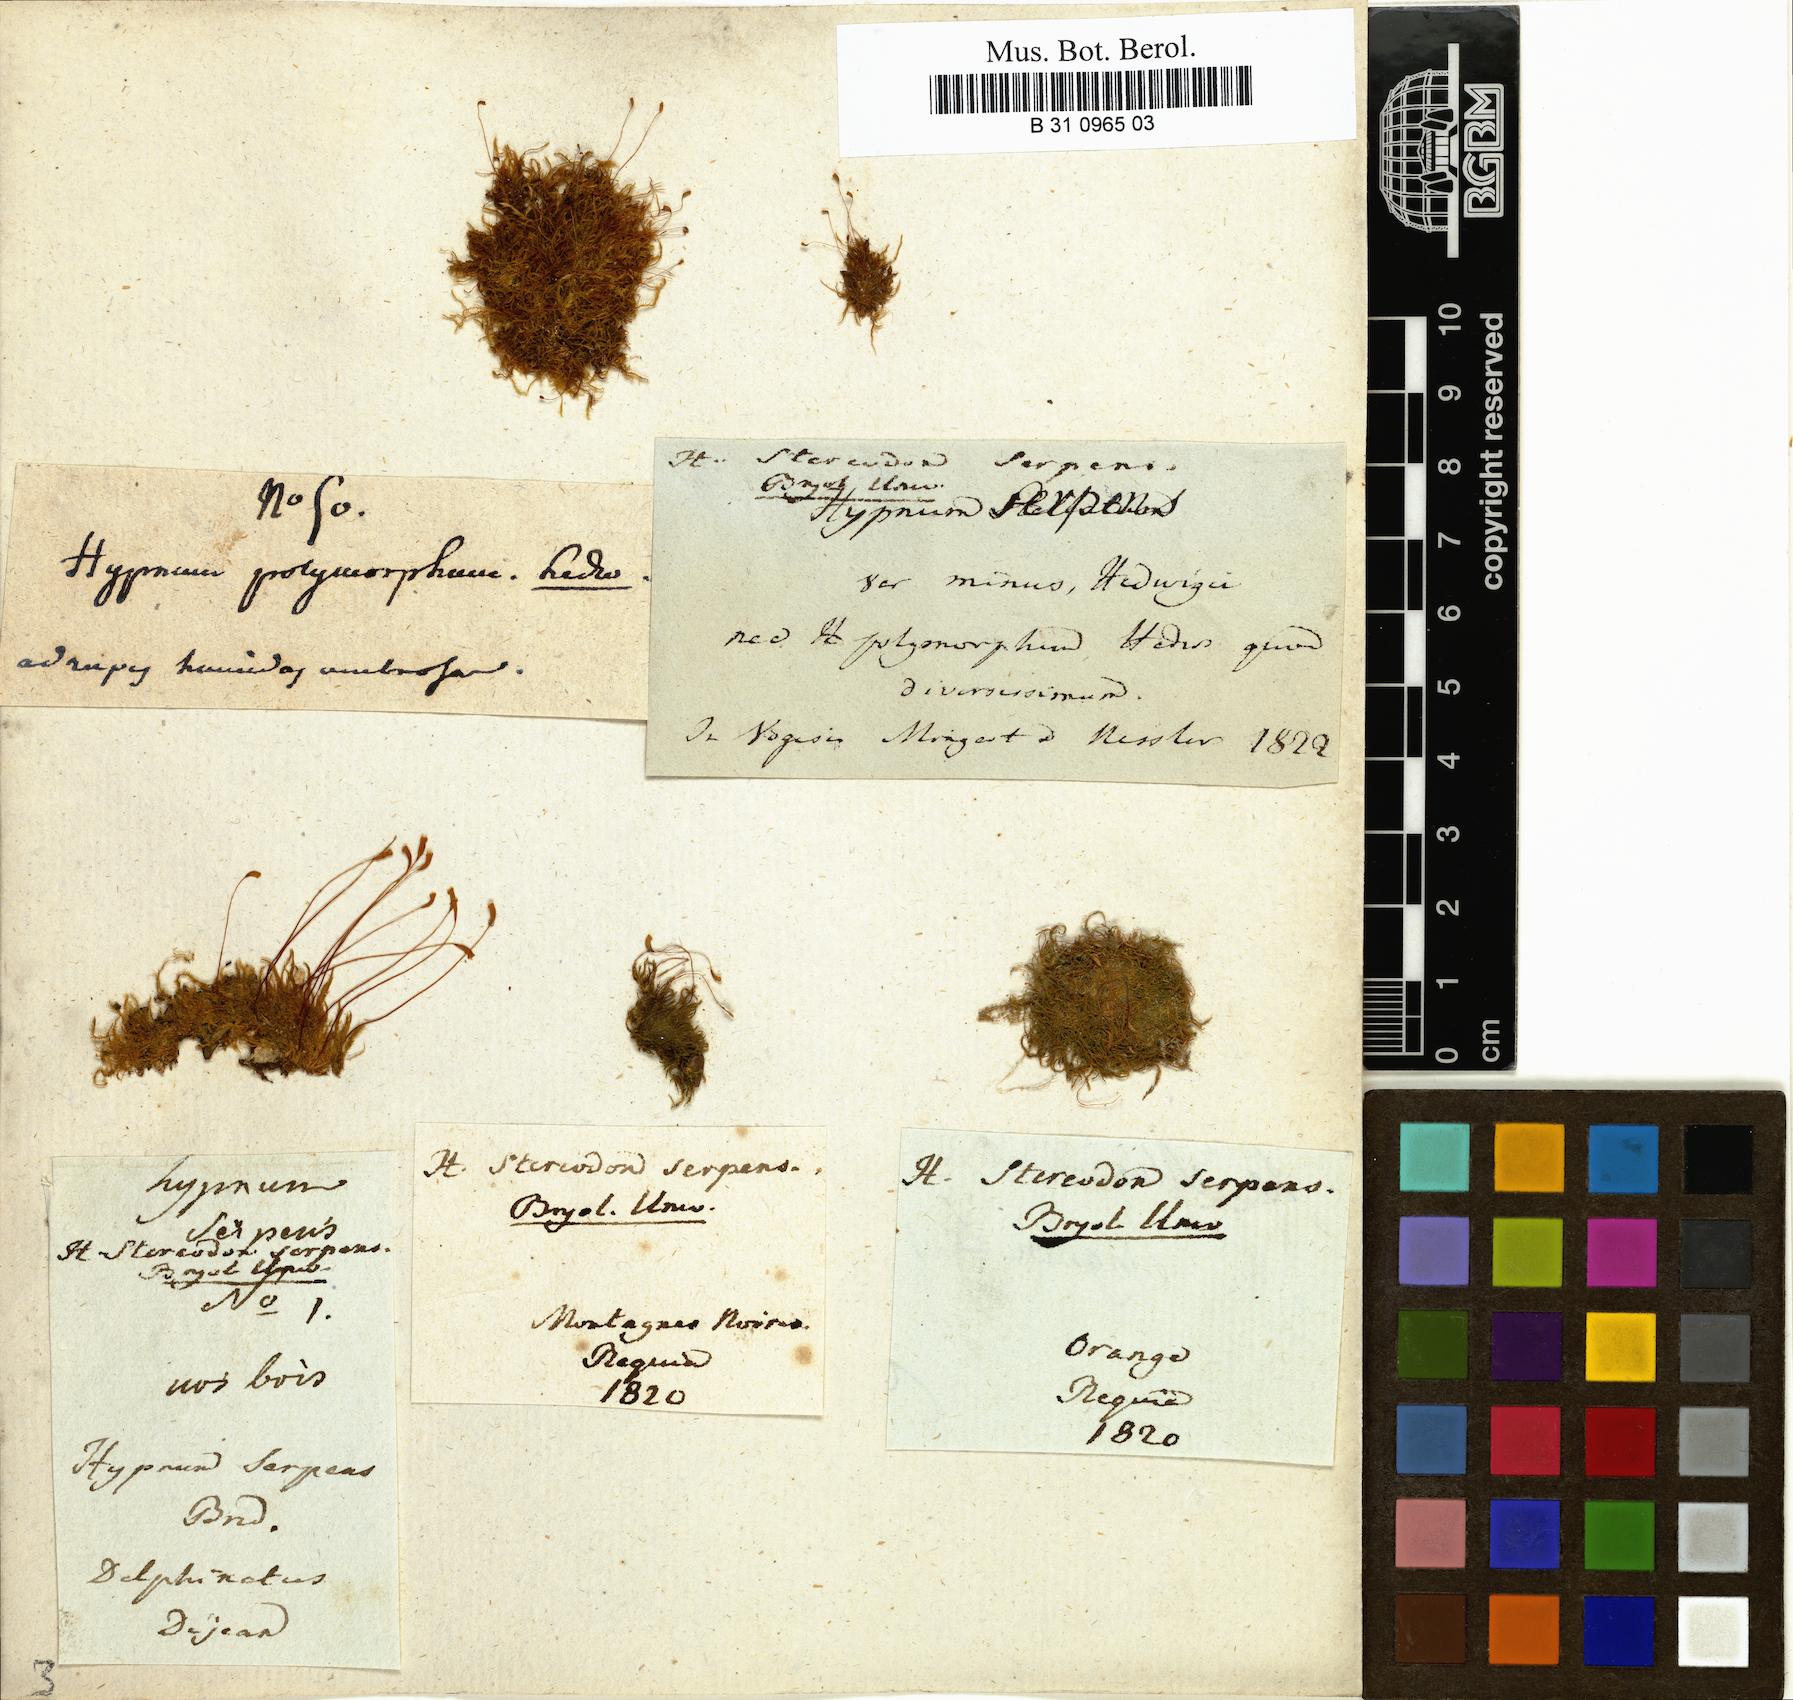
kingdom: Plantae
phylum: Bryophyta
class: Bryopsida
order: Hypnales
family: Amblystegiaceae
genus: Amblystegium
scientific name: Amblystegium serpens
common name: Jurkatzka's feather moss
